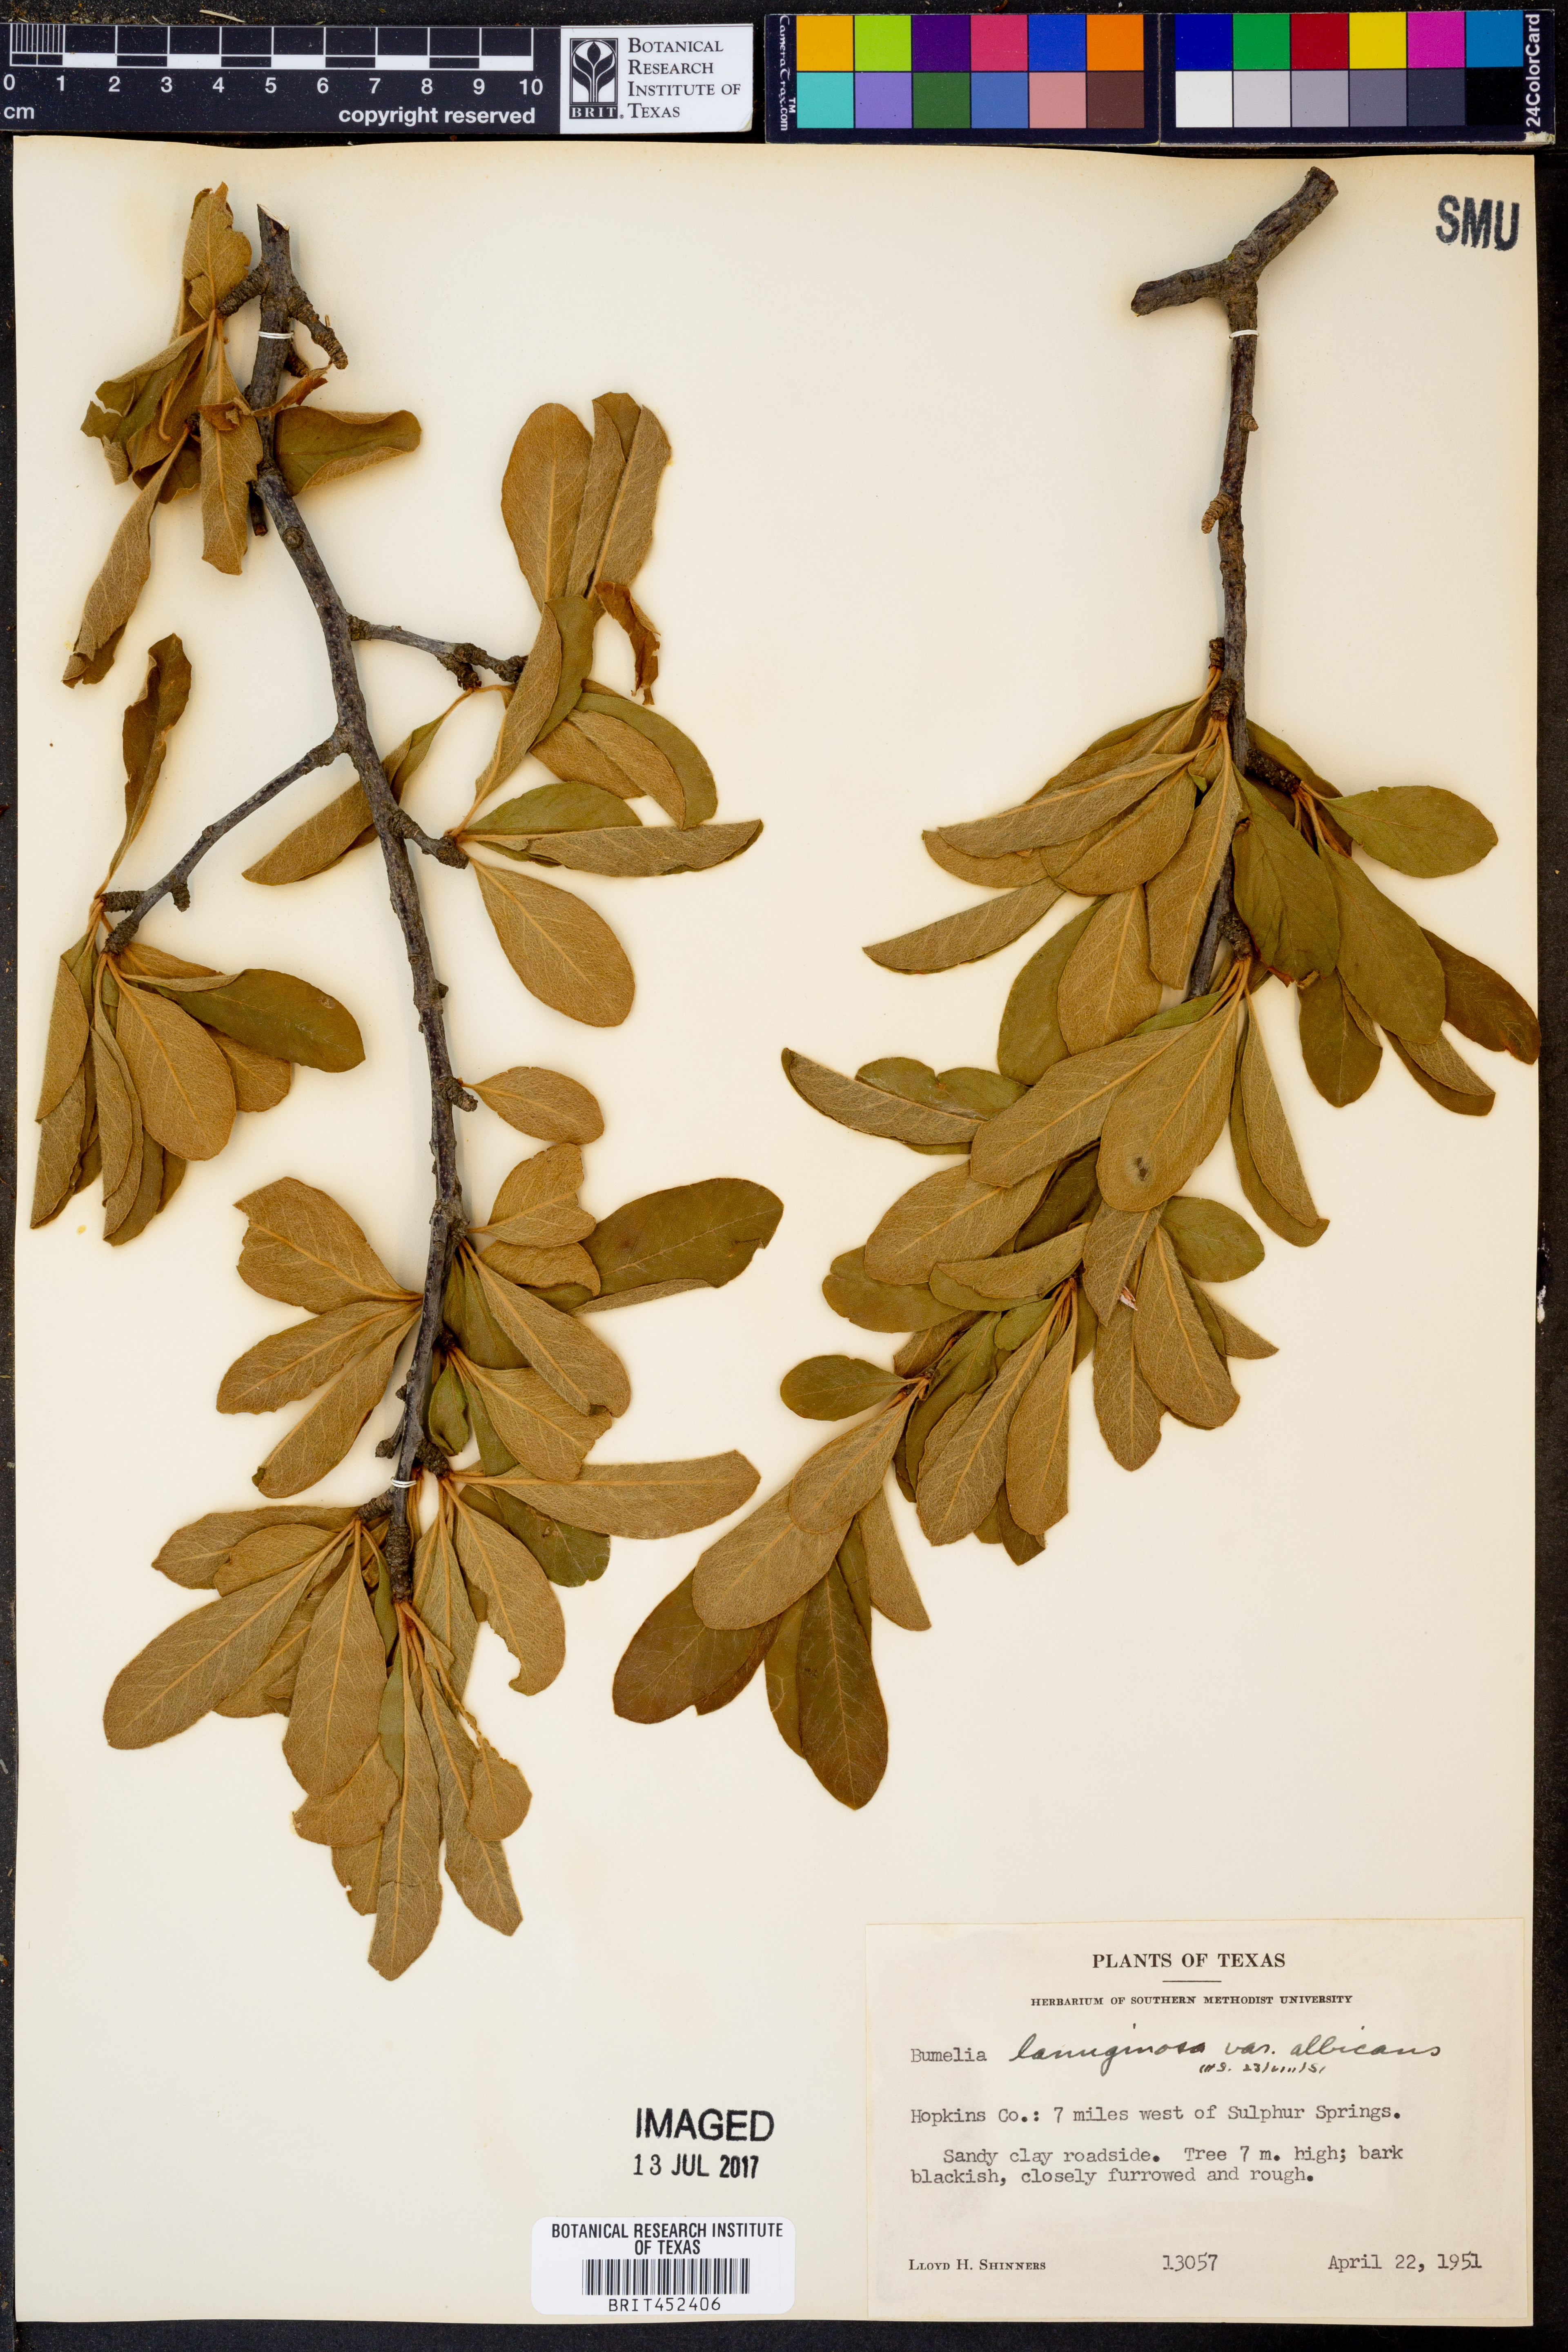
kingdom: Plantae
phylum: Tracheophyta
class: Magnoliopsida
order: Ericales
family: Sapotaceae
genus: Sideroxylon
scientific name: Sideroxylon lanuginosum
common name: Chittamwood
